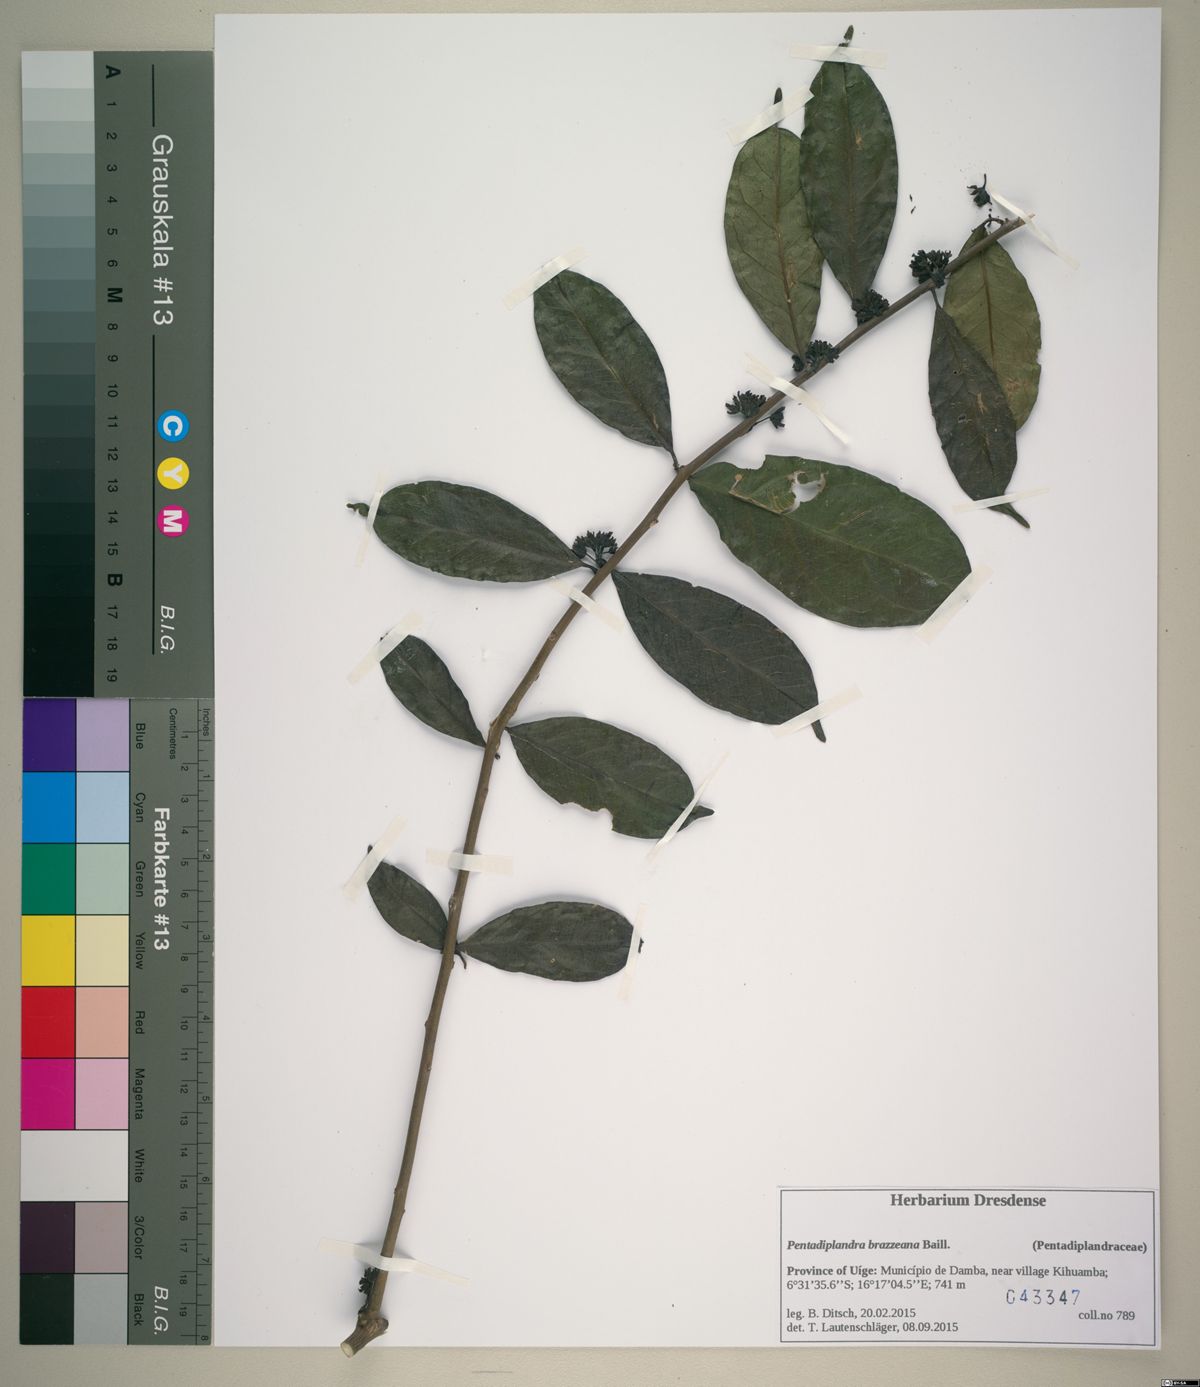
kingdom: Plantae
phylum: Tracheophyta
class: Magnoliopsida
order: Brassicales
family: Pentadiplandraceae
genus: Pentadiplandra
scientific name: Pentadiplandra brazzeana
